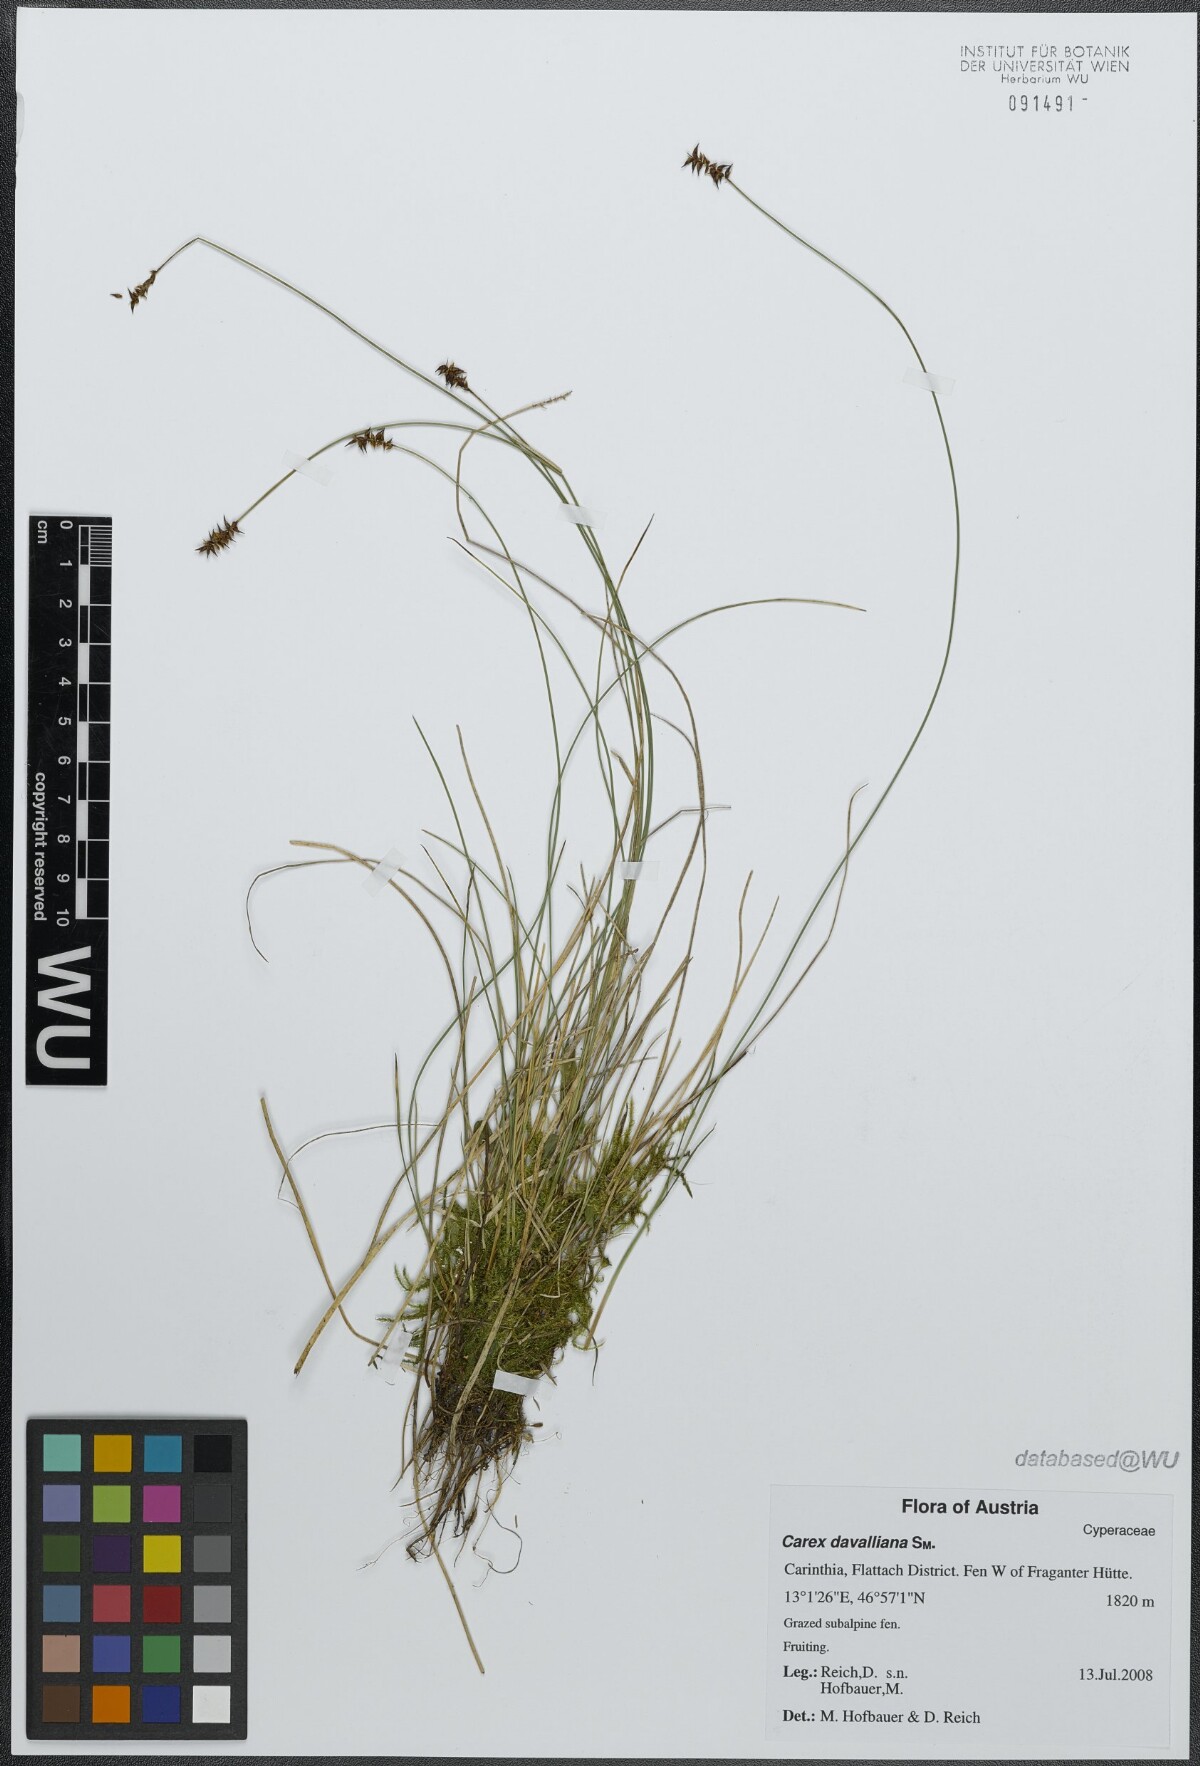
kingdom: Plantae
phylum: Tracheophyta
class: Liliopsida
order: Poales
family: Cyperaceae
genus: Carex
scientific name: Carex davalliana
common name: Davall's sedge
